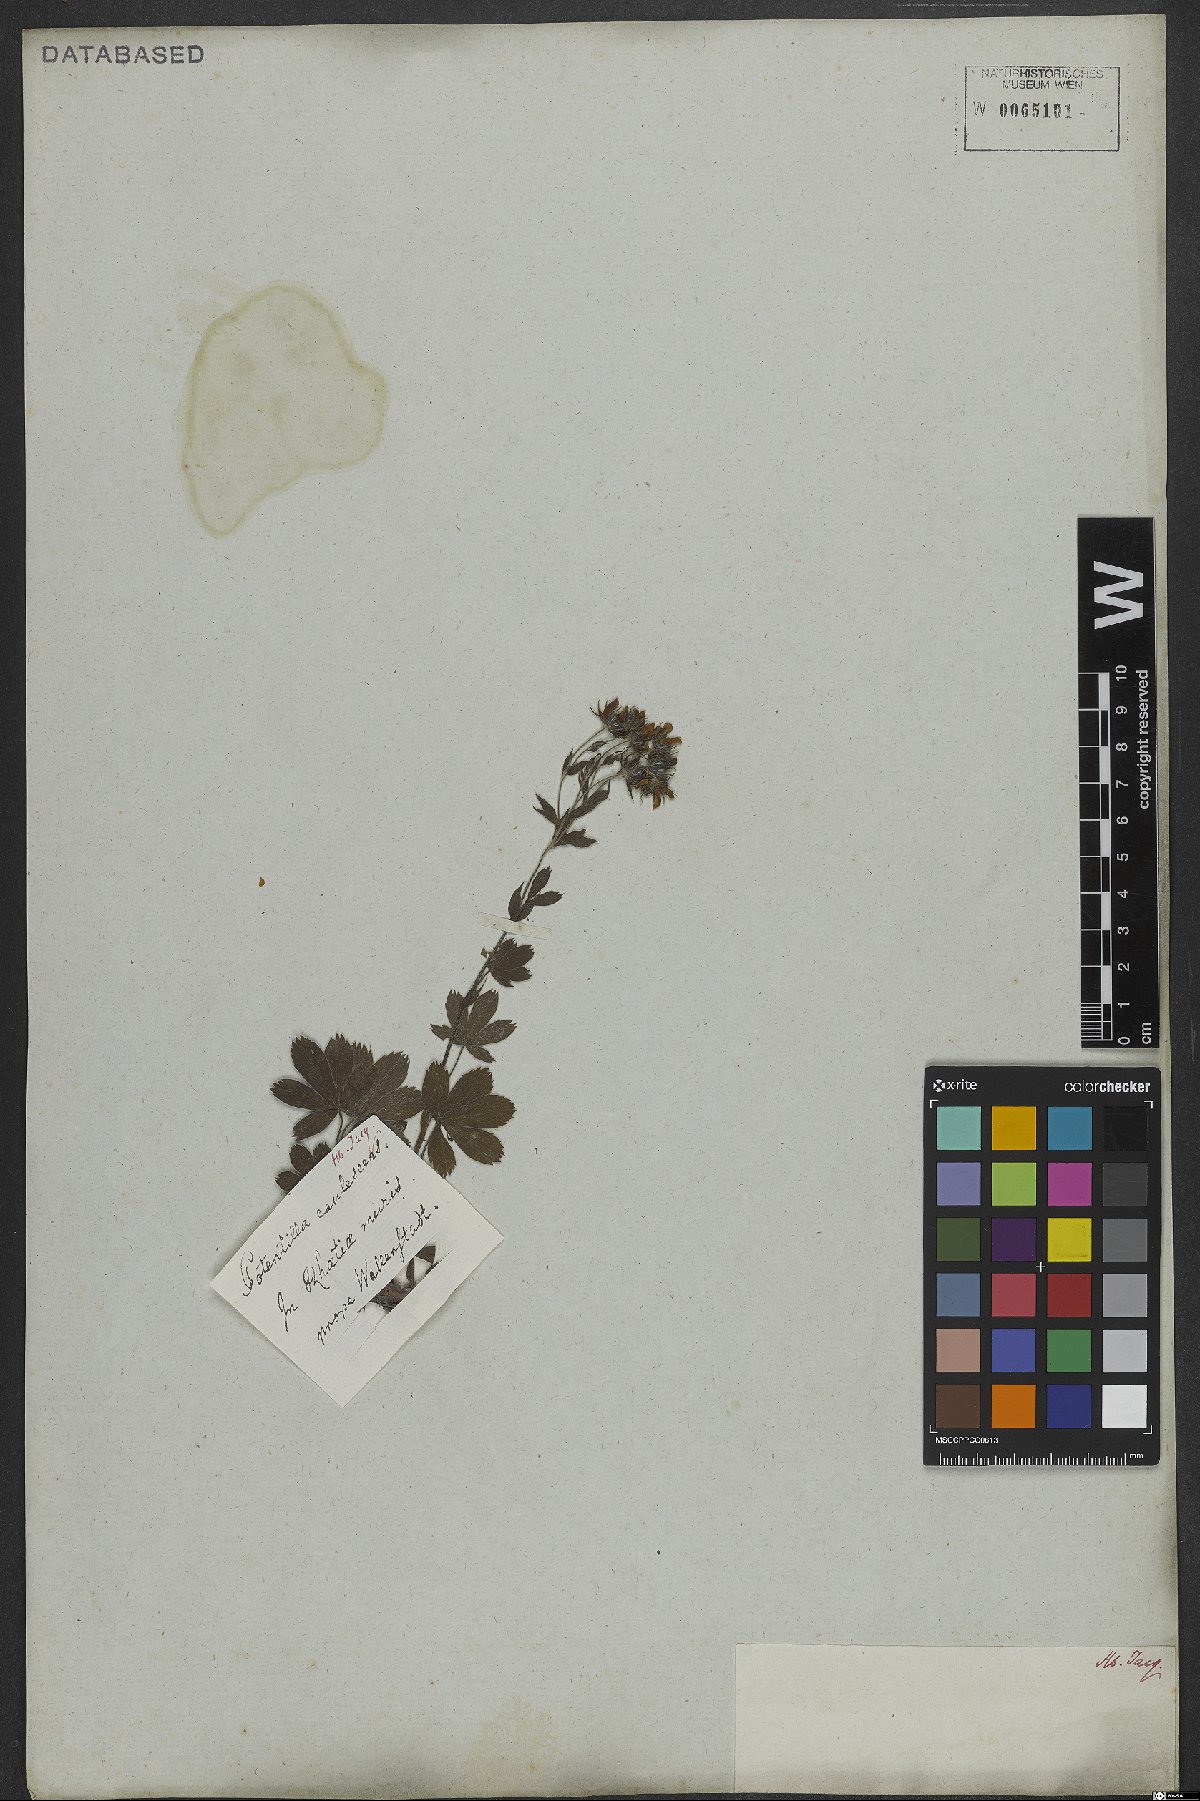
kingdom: Plantae
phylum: Tracheophyta
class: Magnoliopsida
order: Rosales
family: Rosaceae
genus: Potentilla
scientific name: Potentilla caulescens
